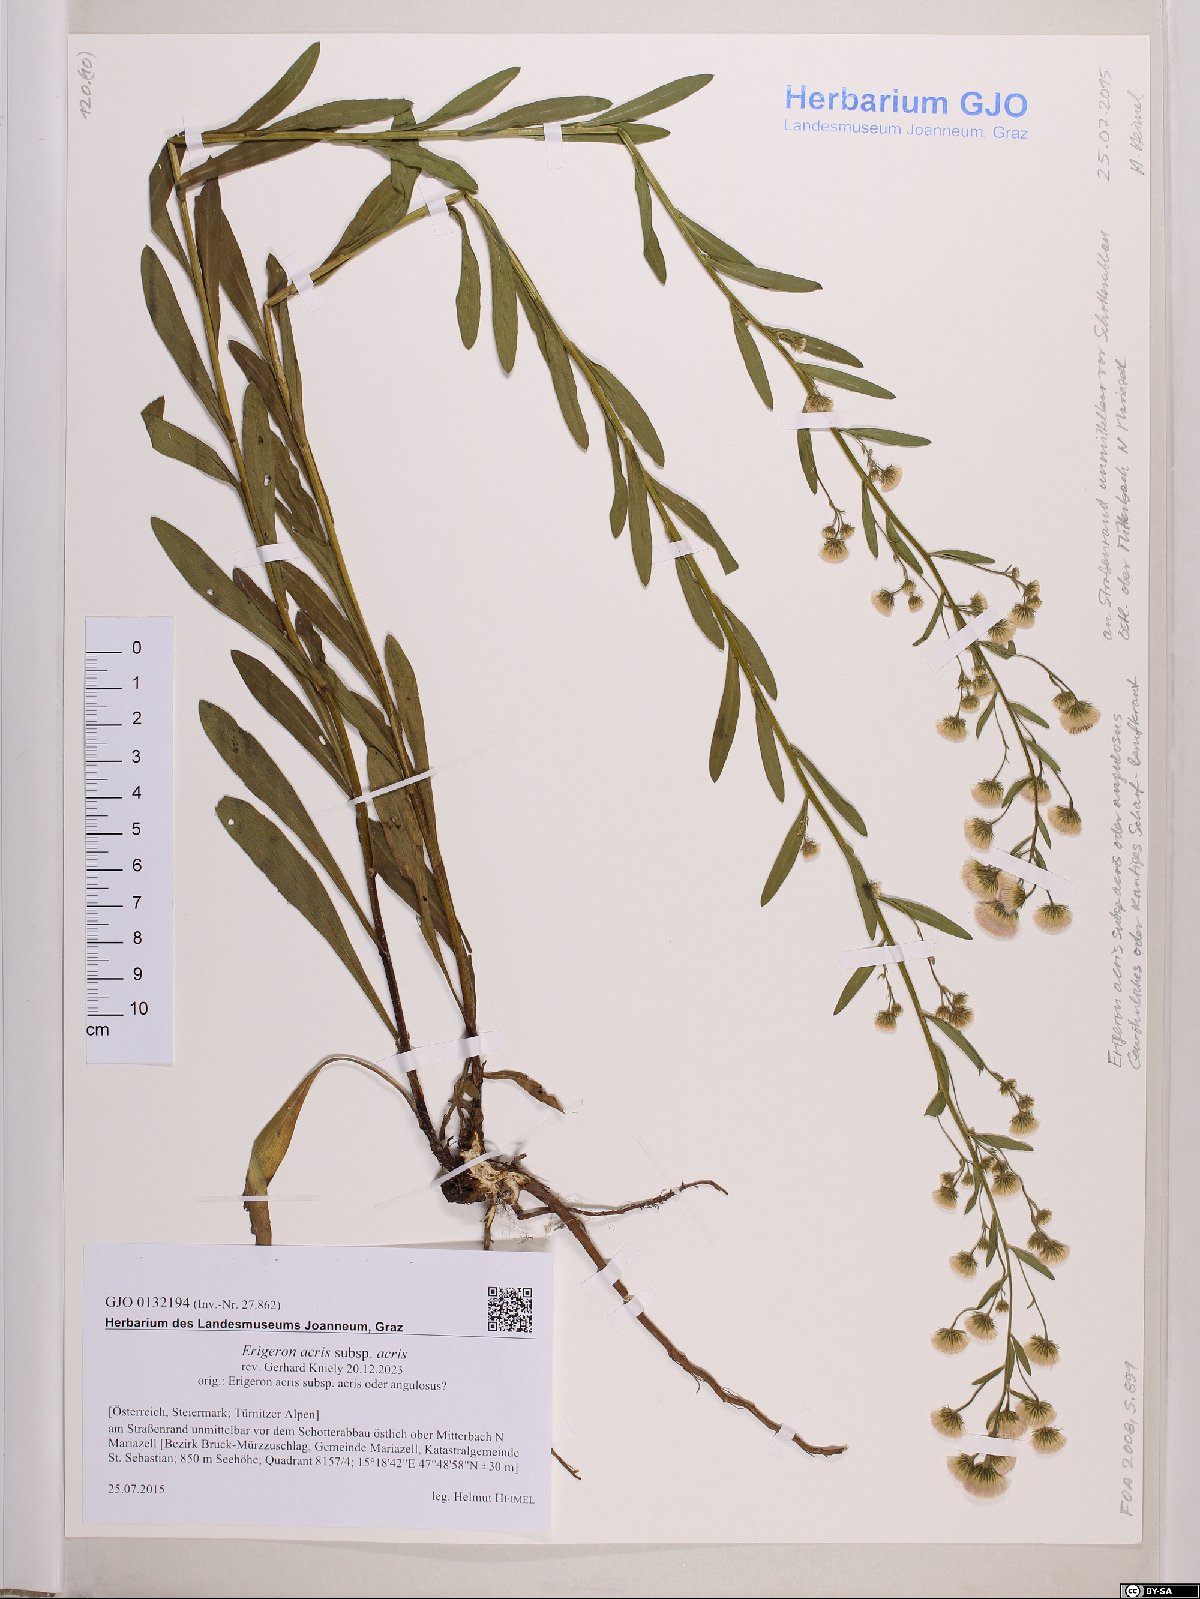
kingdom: Plantae
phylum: Tracheophyta
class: Magnoliopsida
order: Asterales
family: Asteraceae
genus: Erigeron
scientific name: Erigeron acris
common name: Blue fleabane
